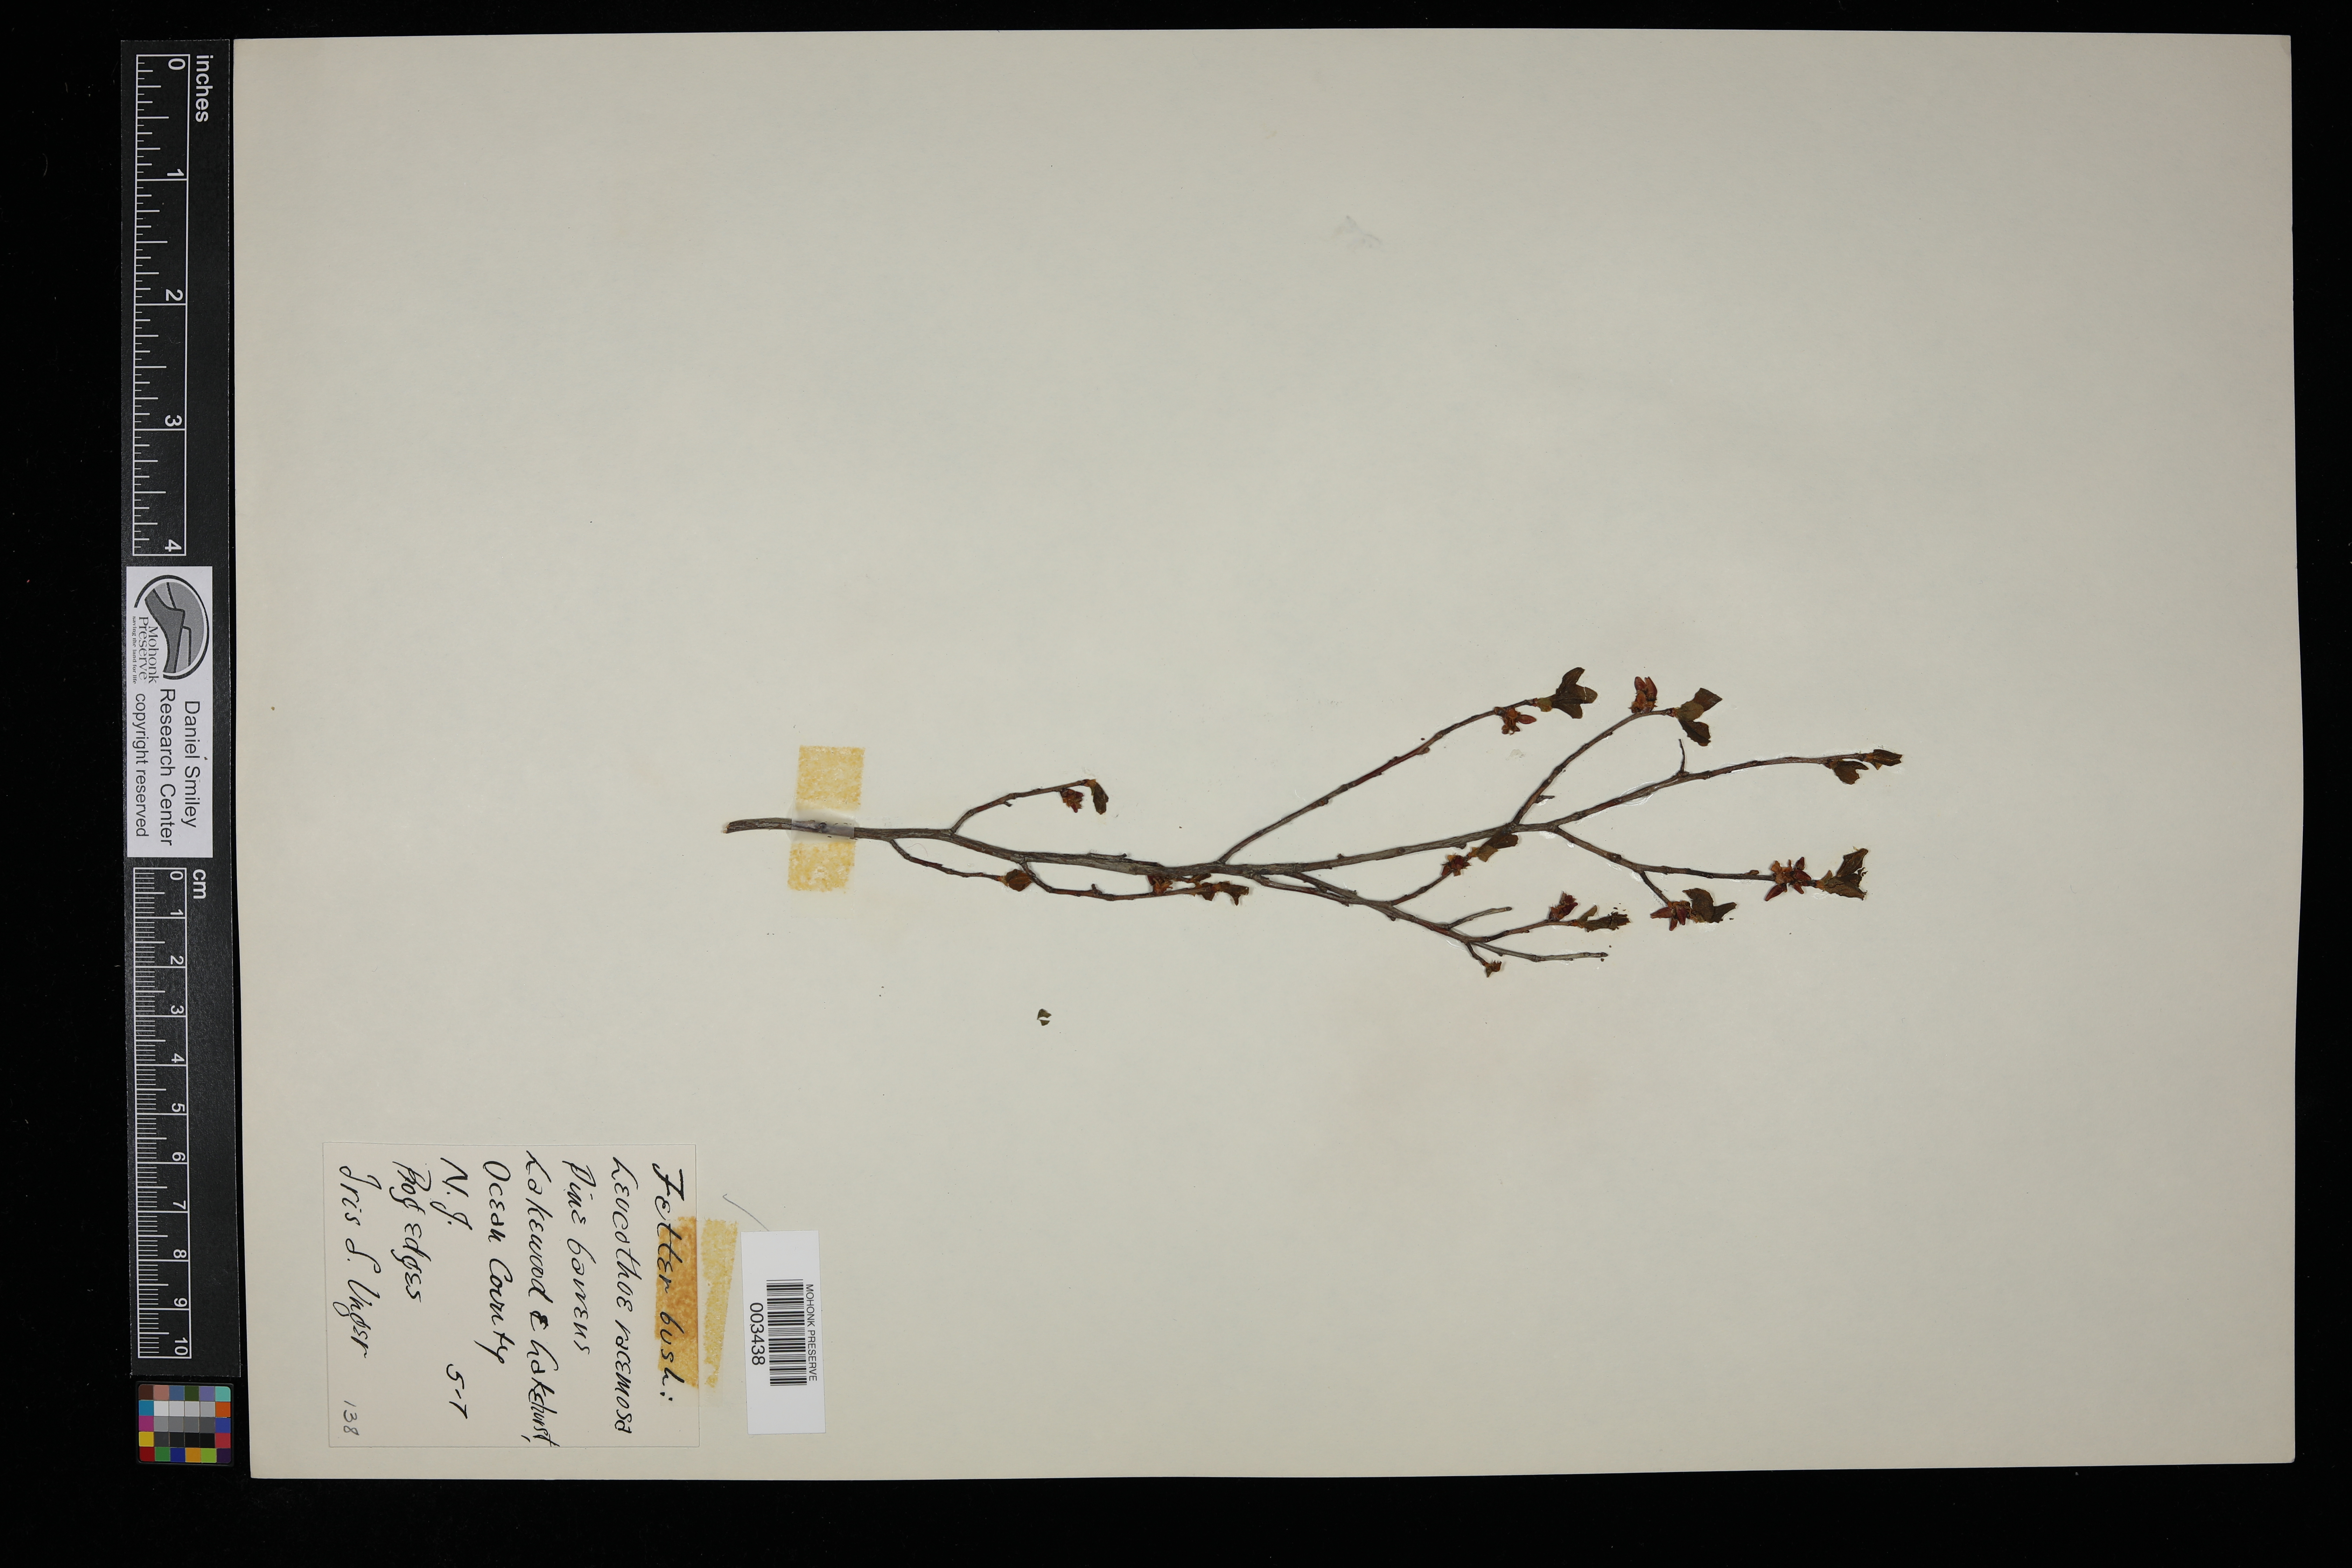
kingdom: Plantae
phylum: Tracheophyta
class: Magnoliopsida
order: Ericales
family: Ericaceae
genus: Eubotrys
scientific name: Eubotrys racemosa
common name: Fetterbush
